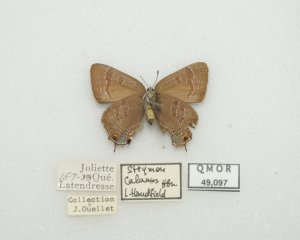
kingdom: Animalia
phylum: Arthropoda
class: Insecta
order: Lepidoptera
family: Lycaenidae
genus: Strymon
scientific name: Strymon caryaevorus
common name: Hickory Hairstreak
